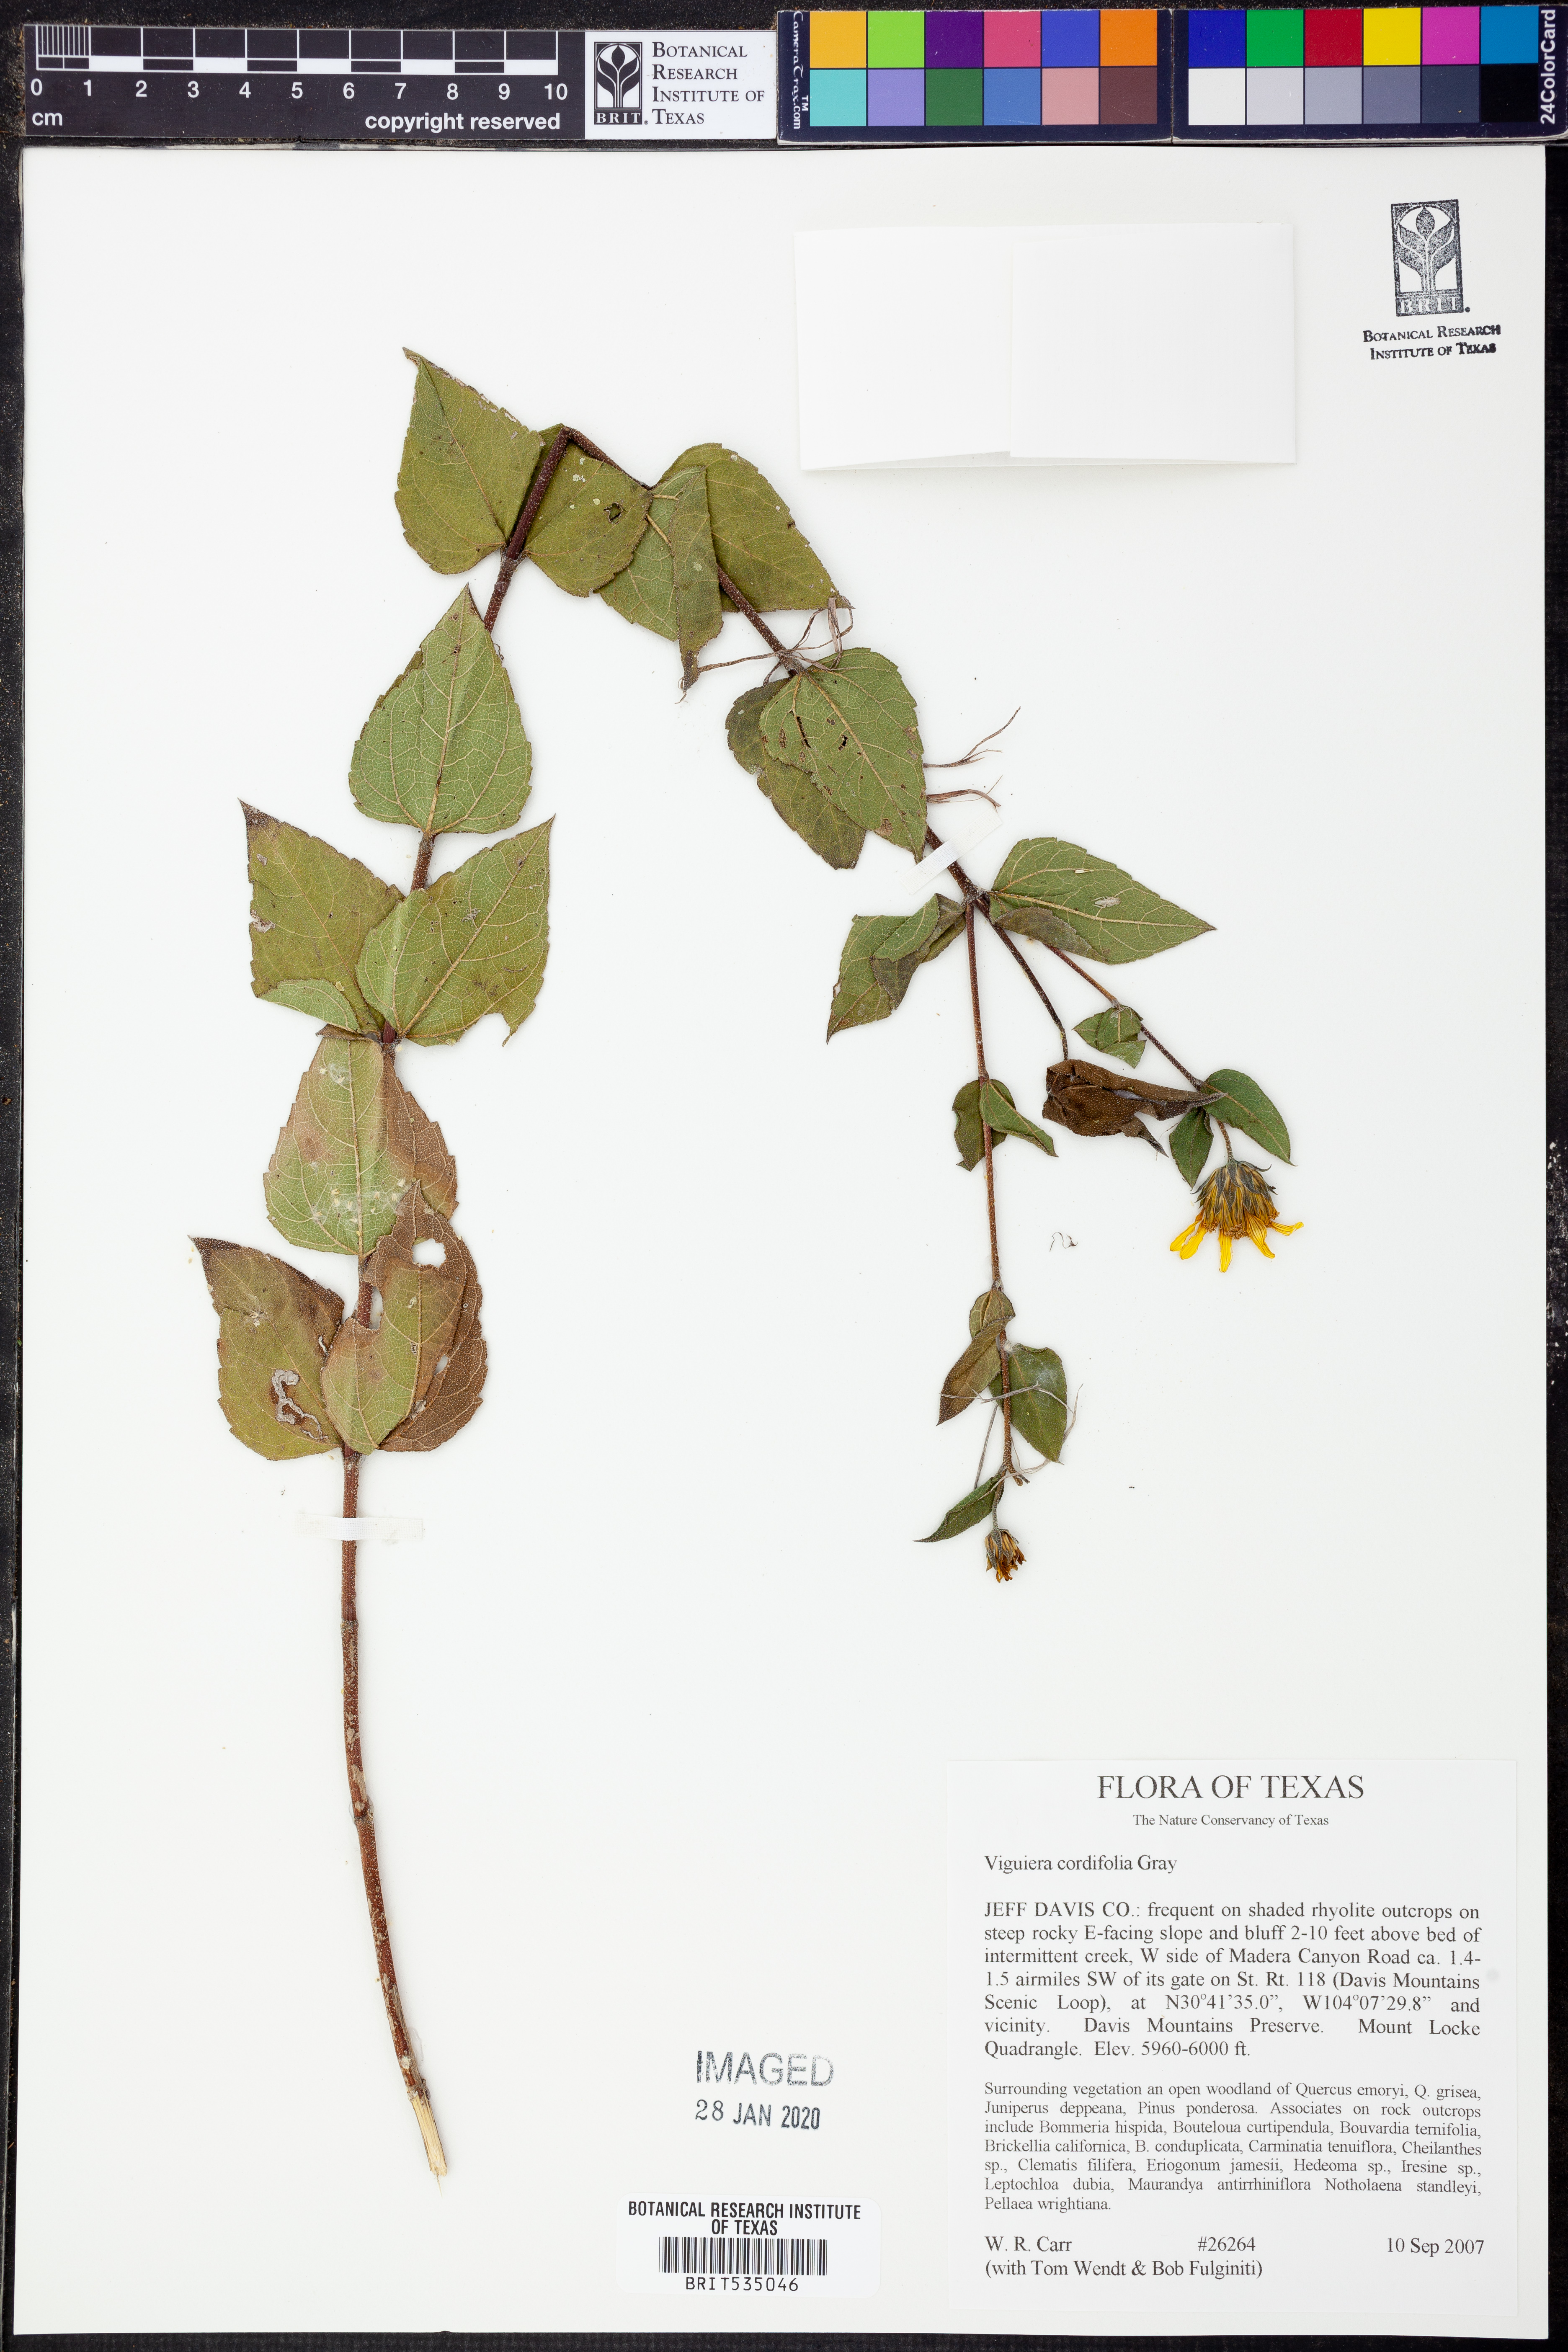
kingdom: Plantae
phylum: Tracheophyta
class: Magnoliopsida
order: Asterales
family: Asteraceae
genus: Aldama
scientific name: Aldama cordifolia
